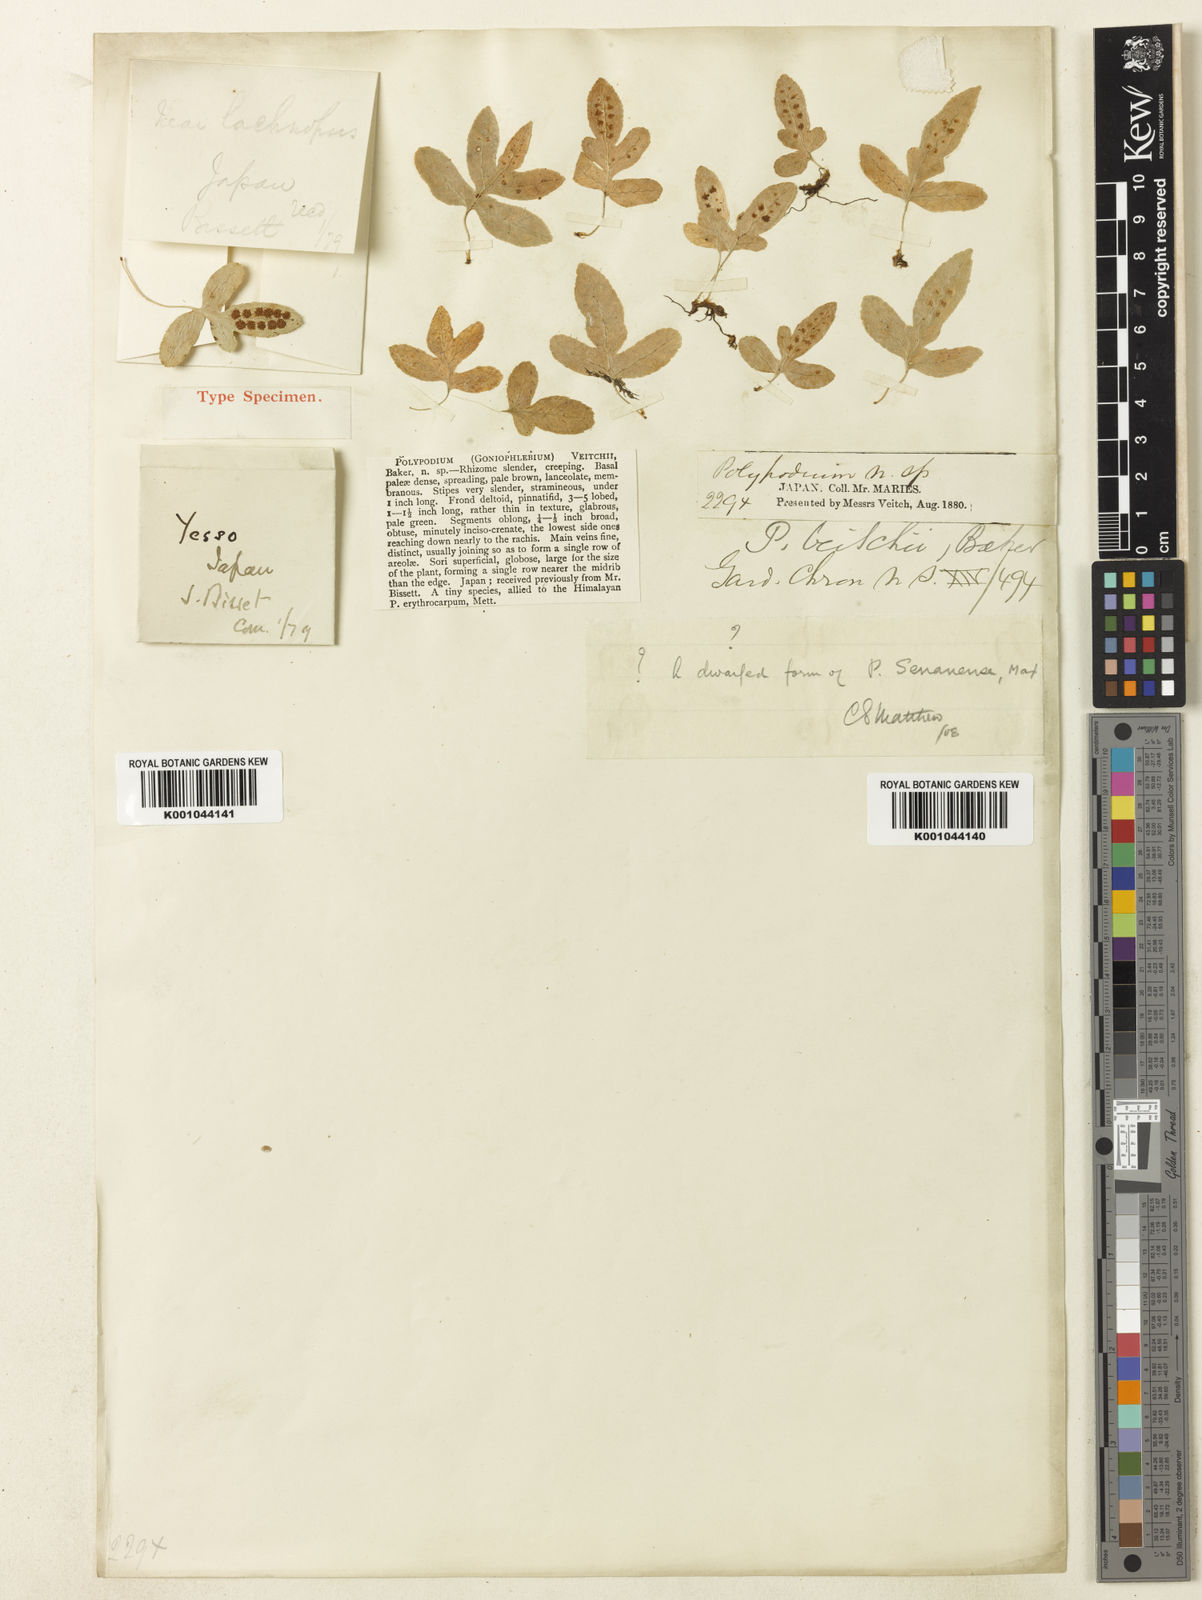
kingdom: Plantae
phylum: Tracheophyta
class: Polypodiopsida
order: Polypodiales
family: Polypodiaceae
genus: Selliguea
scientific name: Selliguea veitchii
